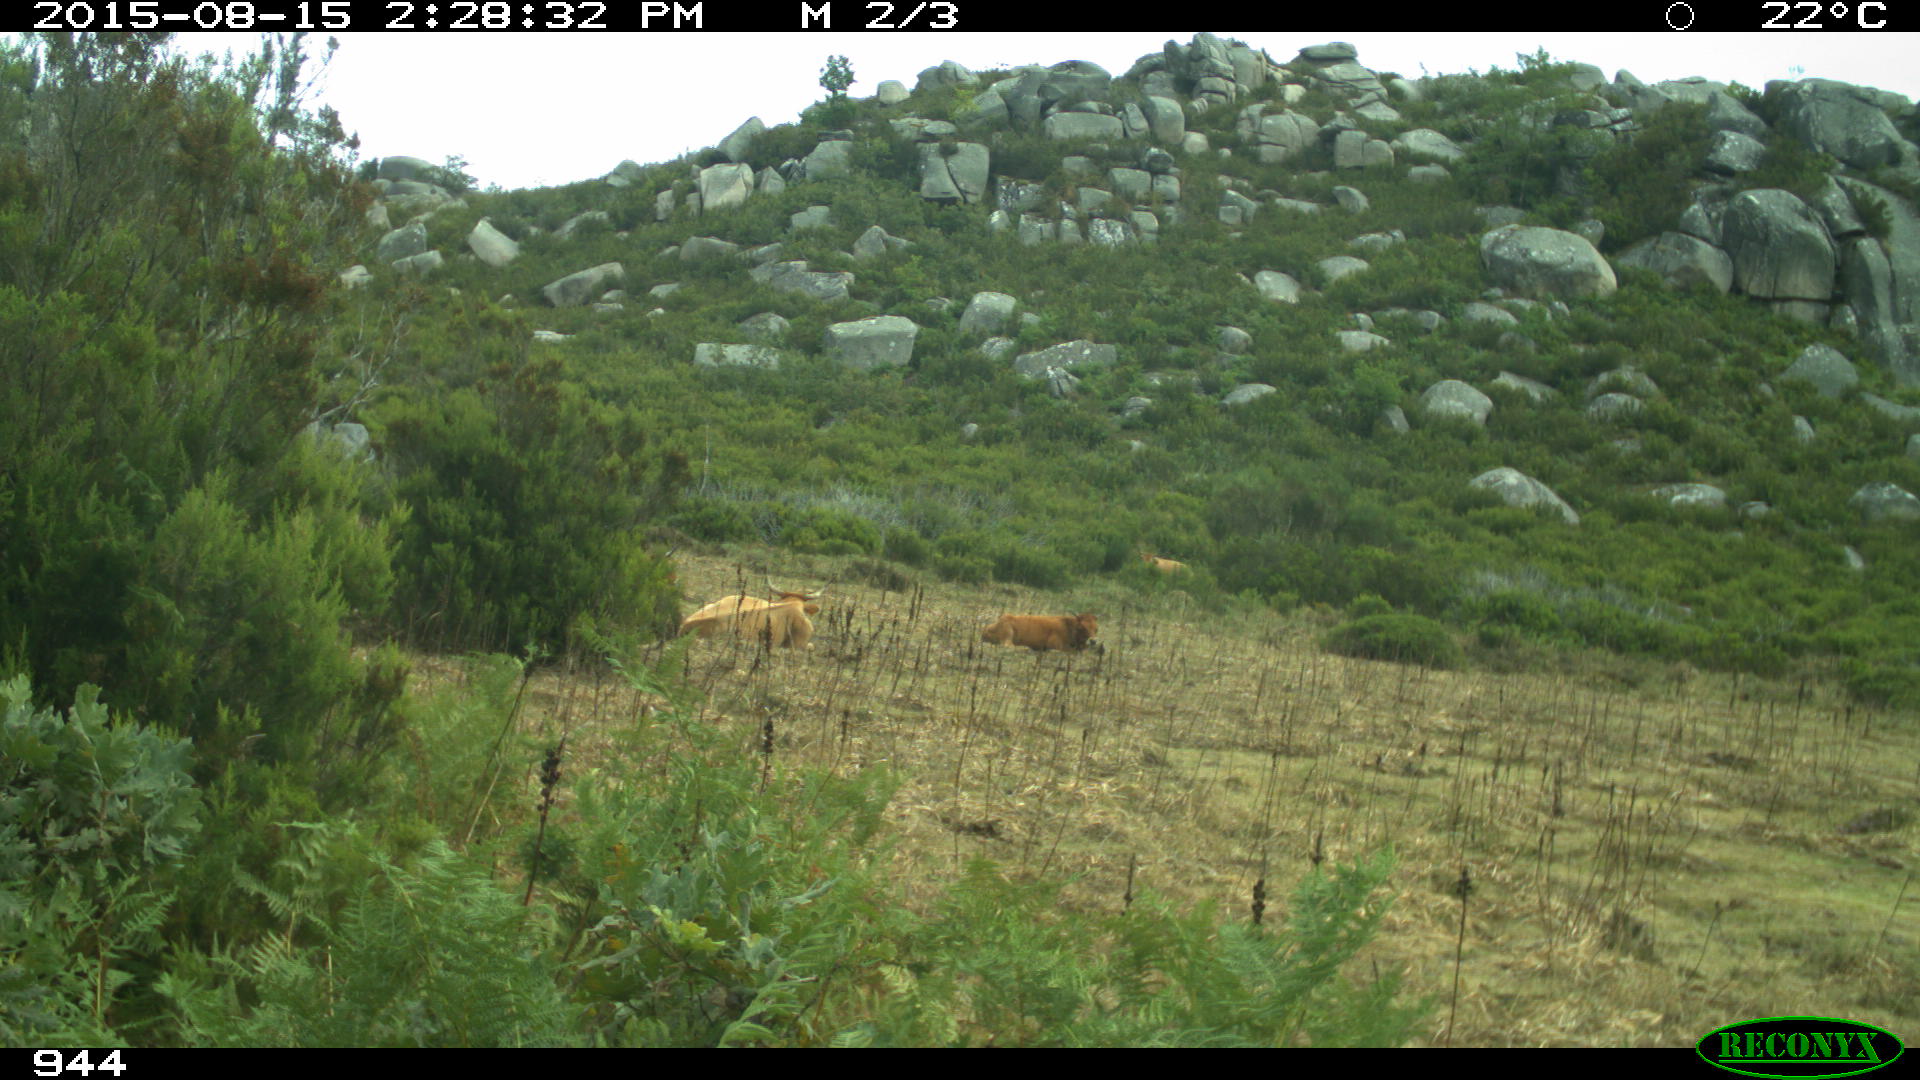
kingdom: Animalia
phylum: Chordata
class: Mammalia
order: Artiodactyla
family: Bovidae
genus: Bos
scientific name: Bos taurus
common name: Domesticated cattle
